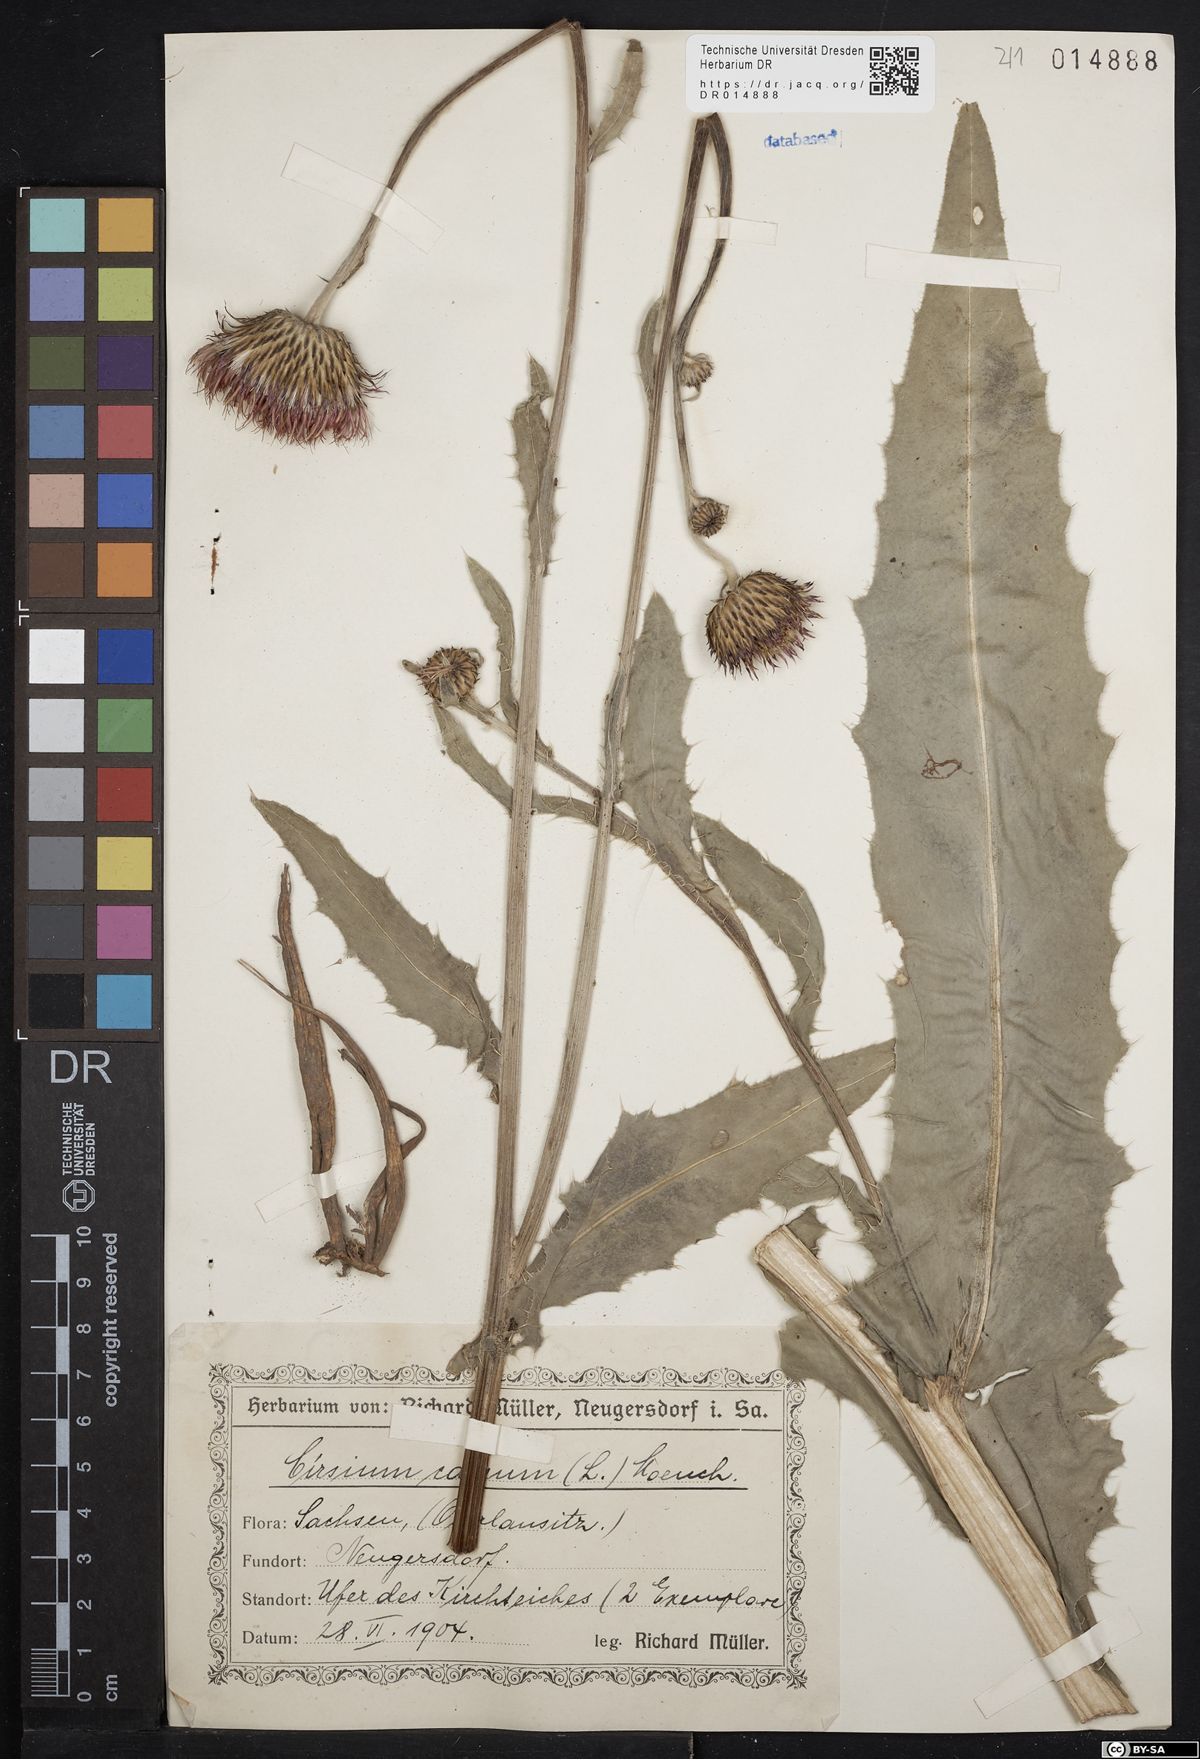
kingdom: Plantae
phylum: Tracheophyta
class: Magnoliopsida
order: Asterales
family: Asteraceae
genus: Cirsium
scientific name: Cirsium canum
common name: Queen anne's thistle
